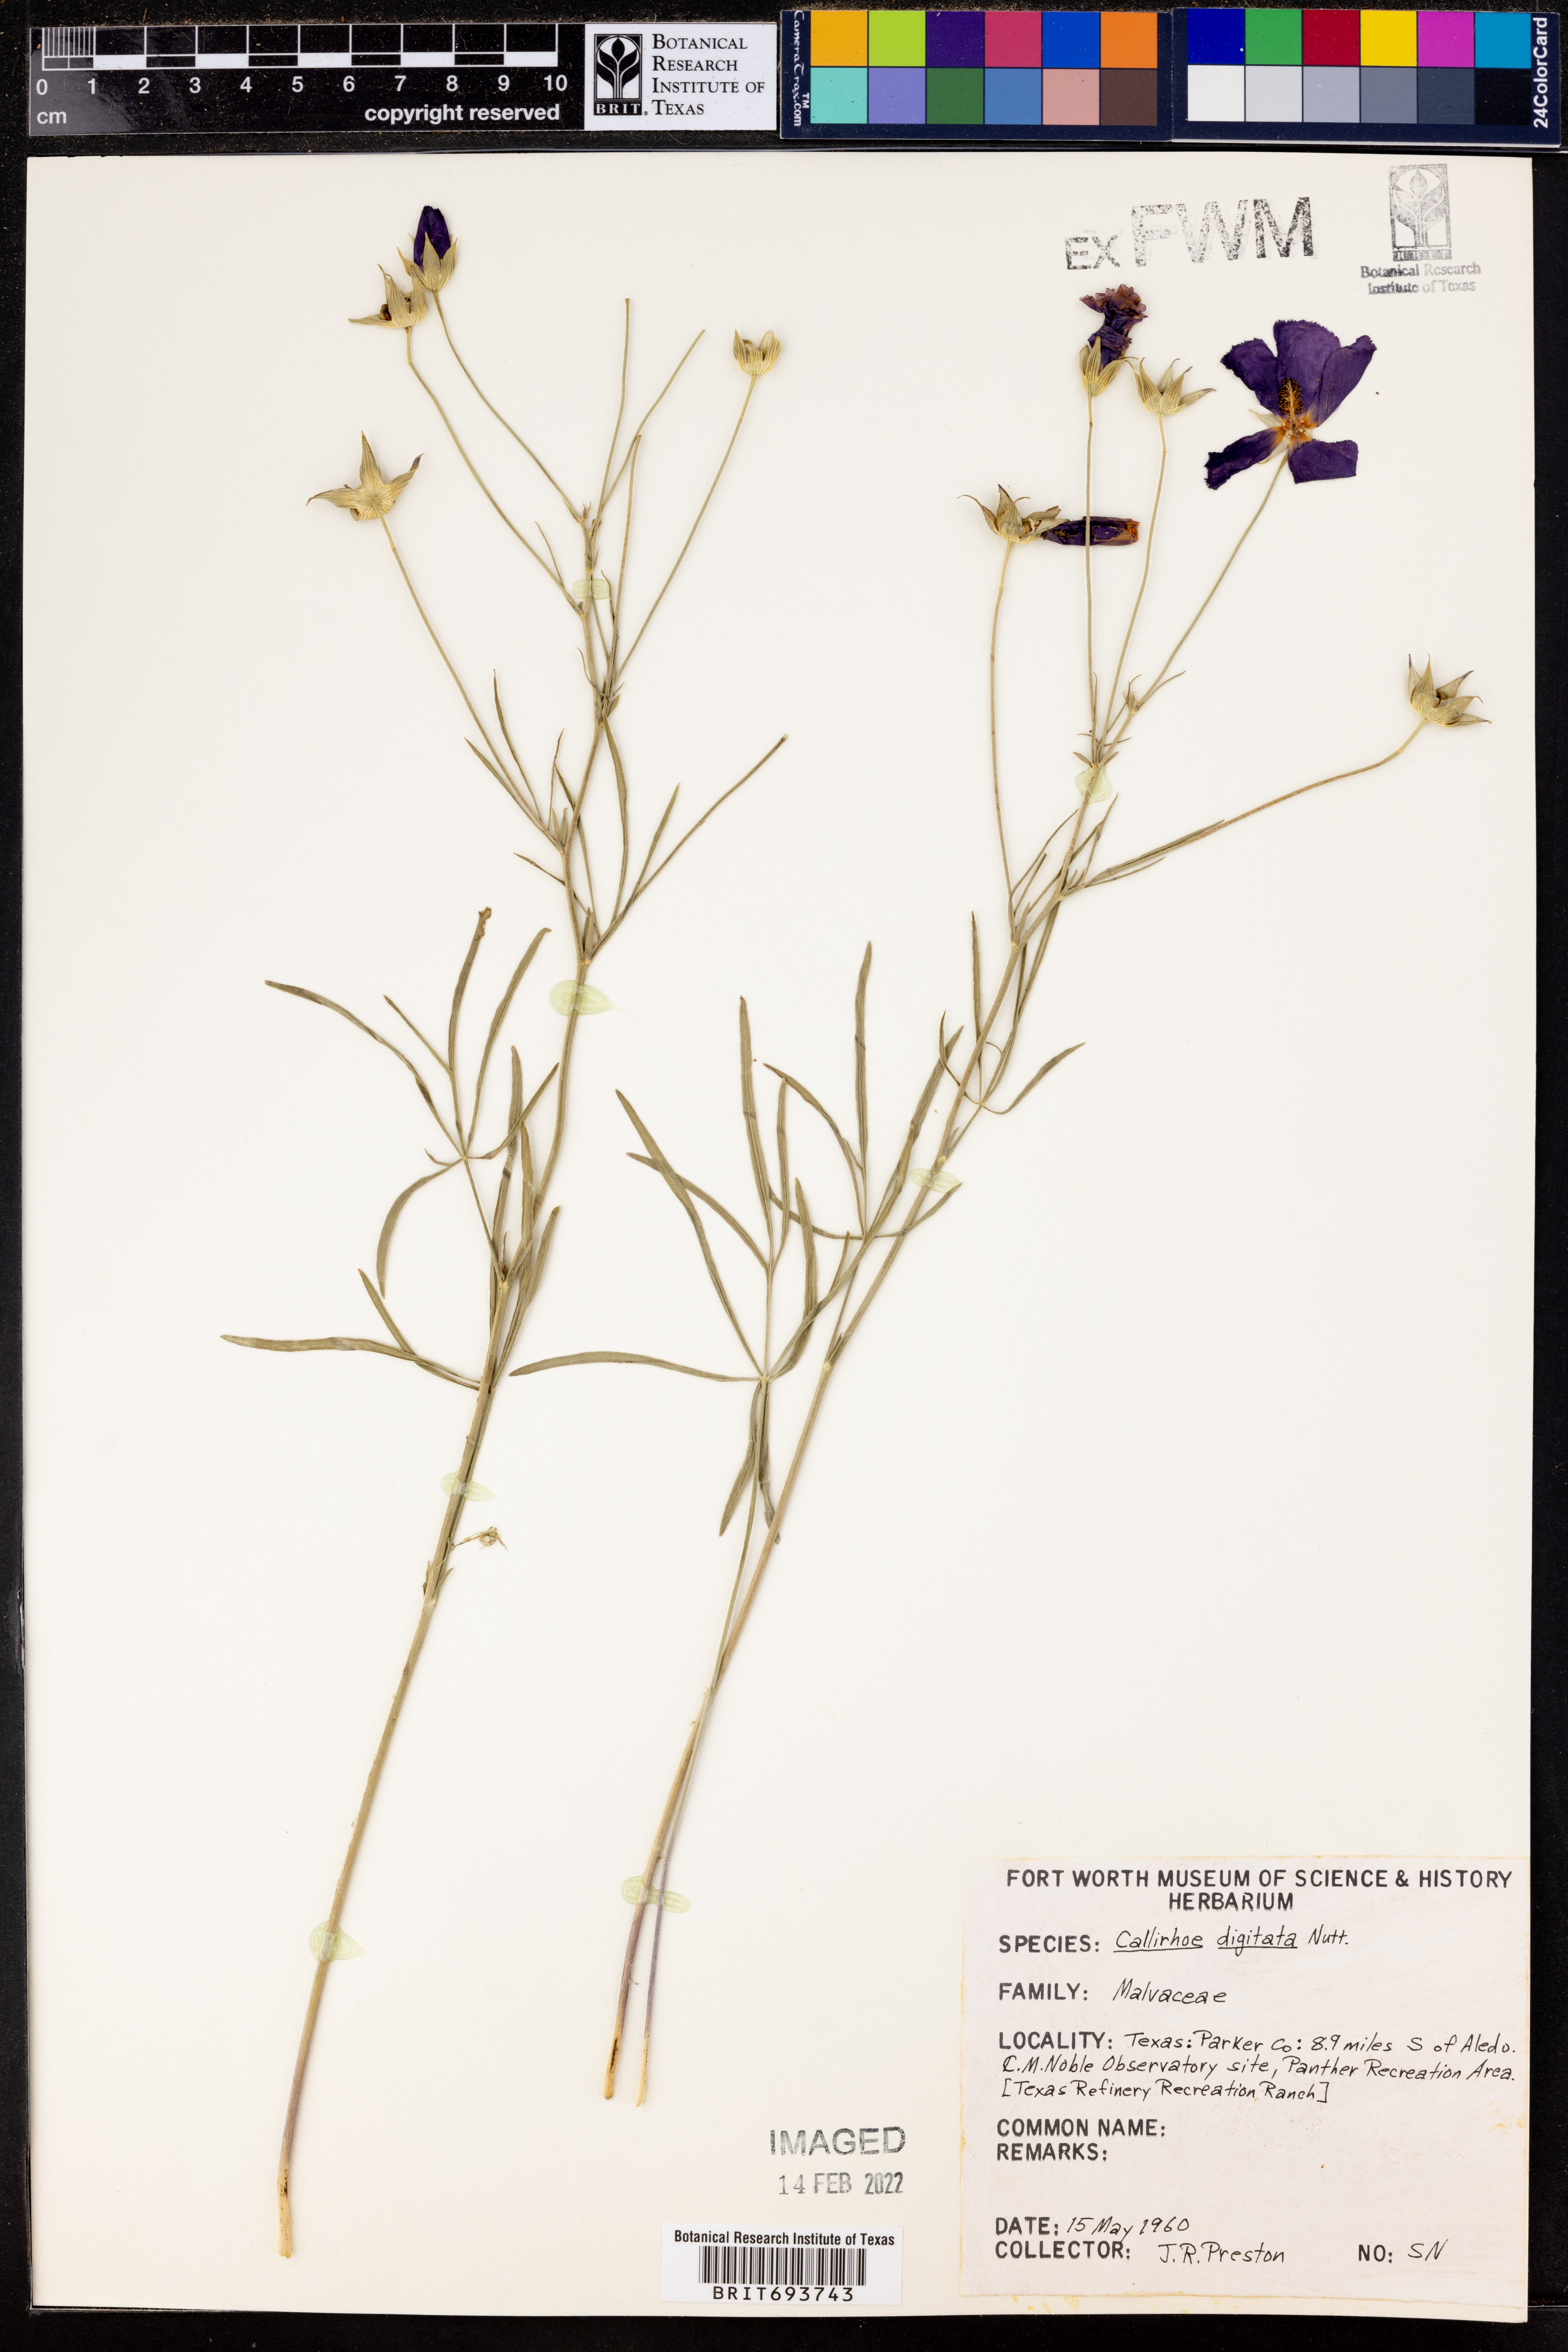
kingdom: Plantae
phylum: Tracheophyta
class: Magnoliopsida
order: Malvales
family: Malvaceae
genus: Callirhoe
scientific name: Callirhoe digitata
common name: Finger poppy-mallow
